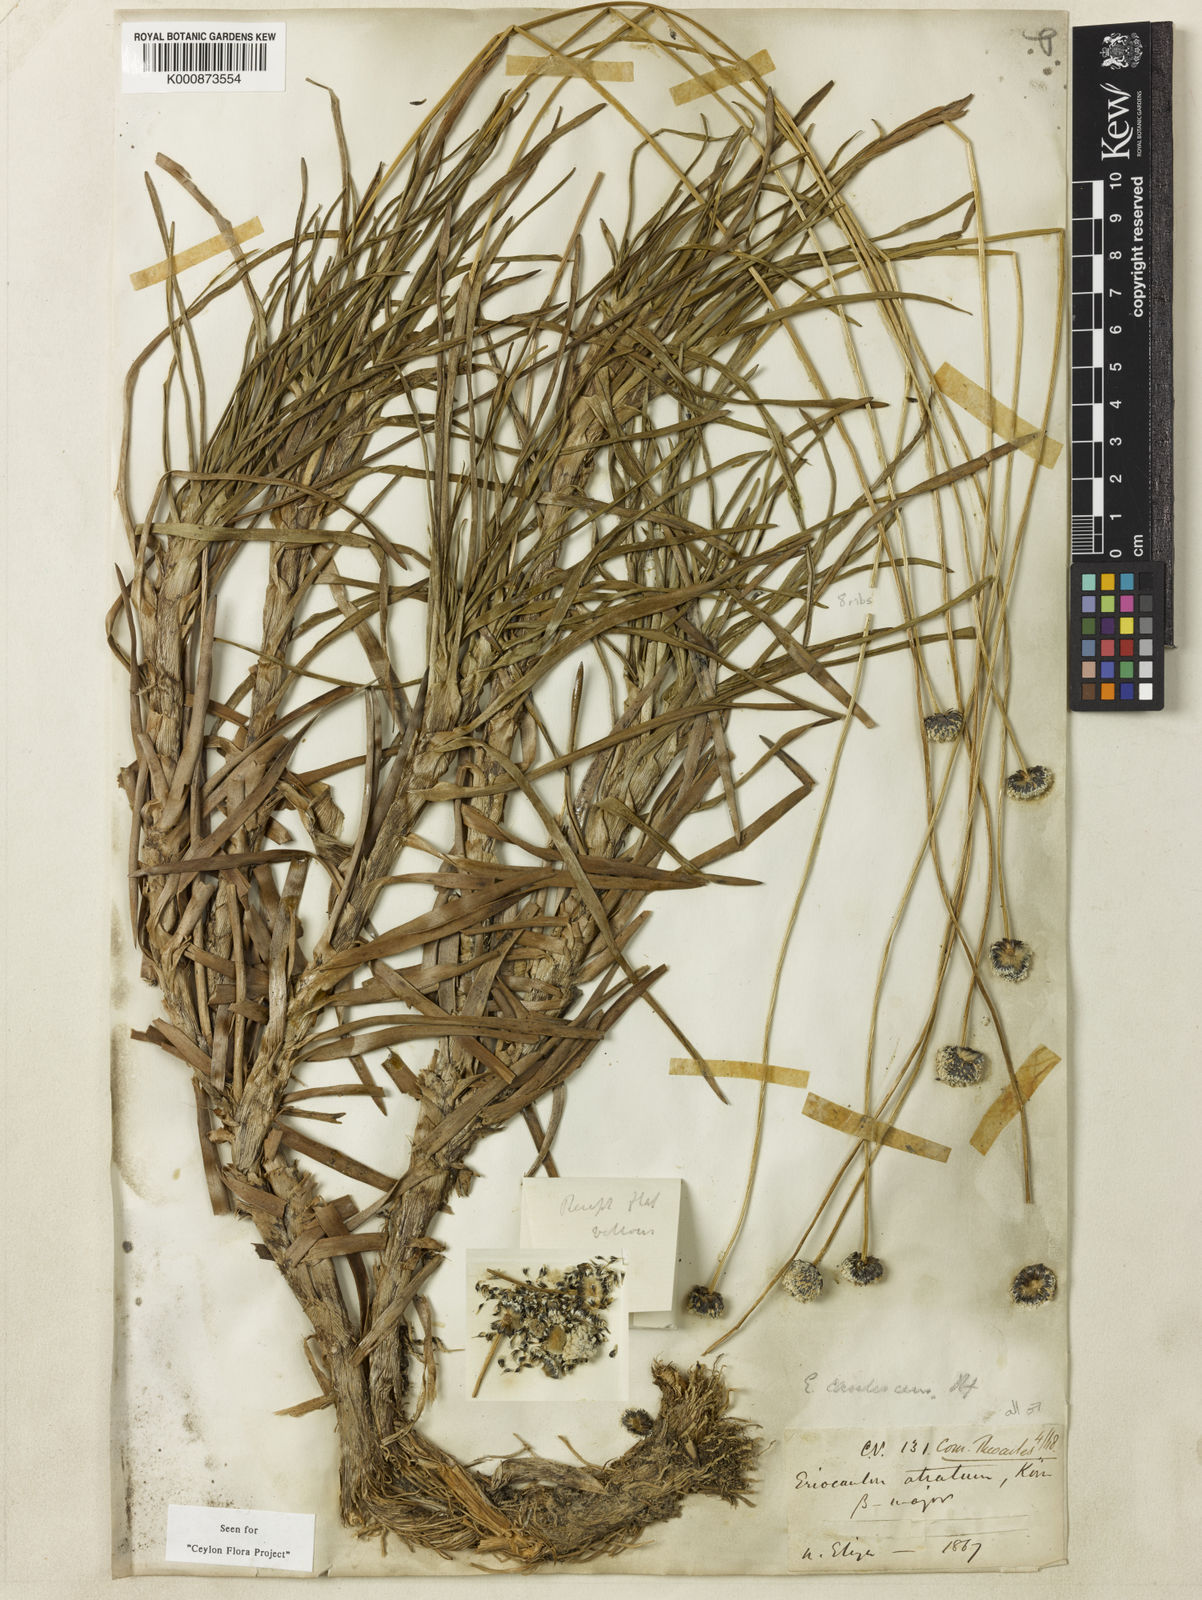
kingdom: Plantae
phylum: Tracheophyta
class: Liliopsida
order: Poales
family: Eriocaulaceae
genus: Eriocaulon
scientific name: Eriocaulon philippo-coburgii
